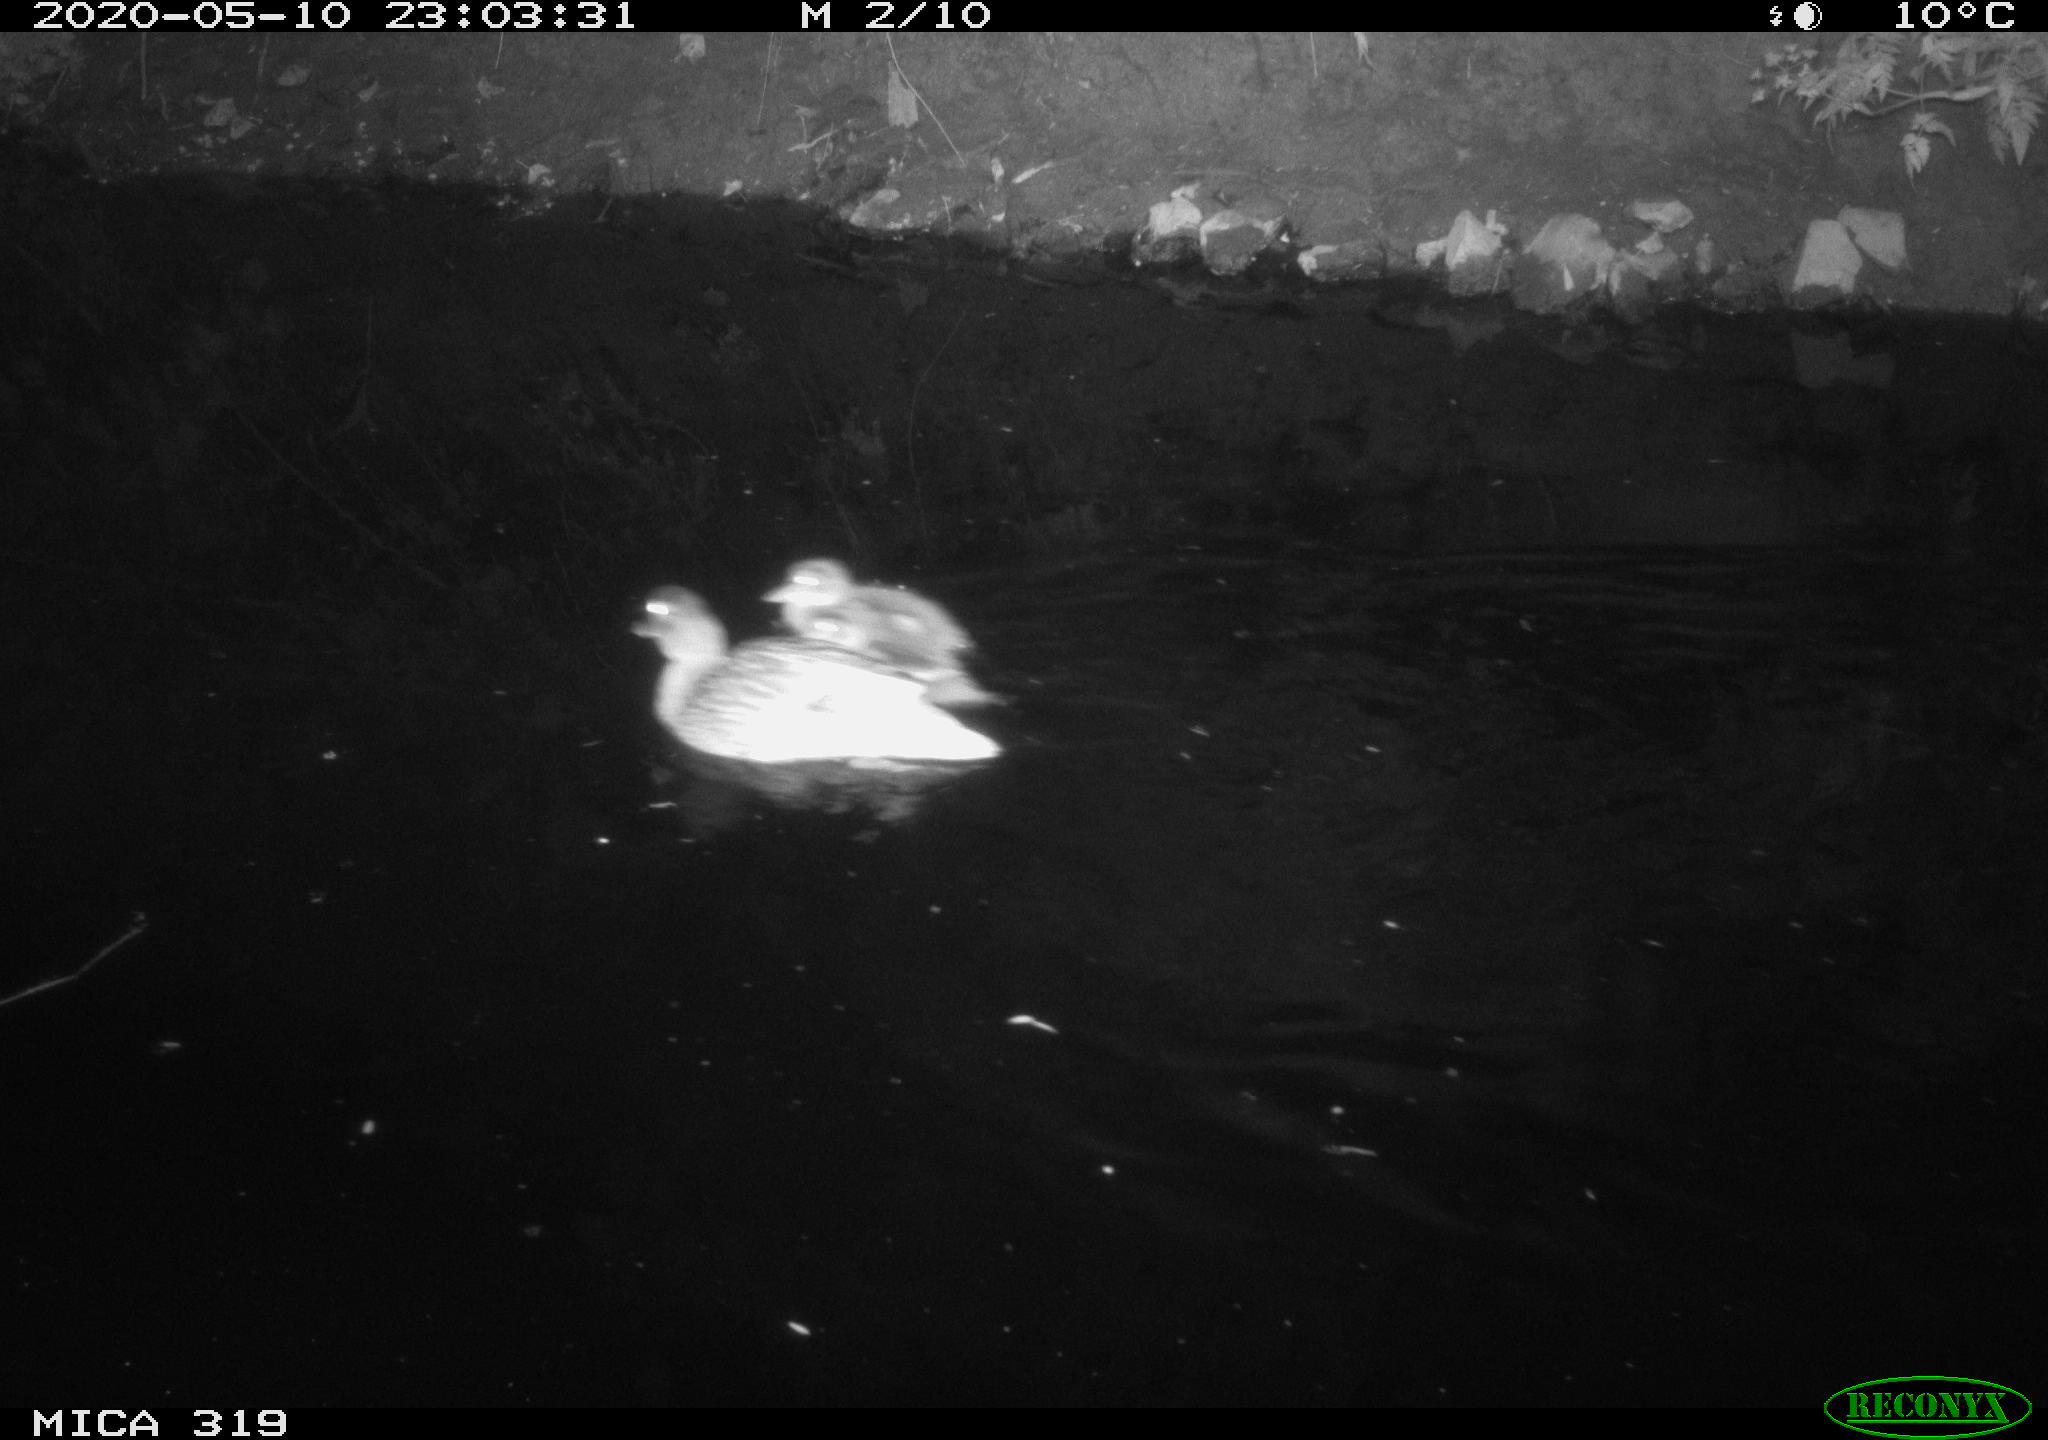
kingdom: Animalia
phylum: Chordata
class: Aves
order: Anseriformes
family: Anatidae
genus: Anas
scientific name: Anas platyrhynchos
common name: Mallard
